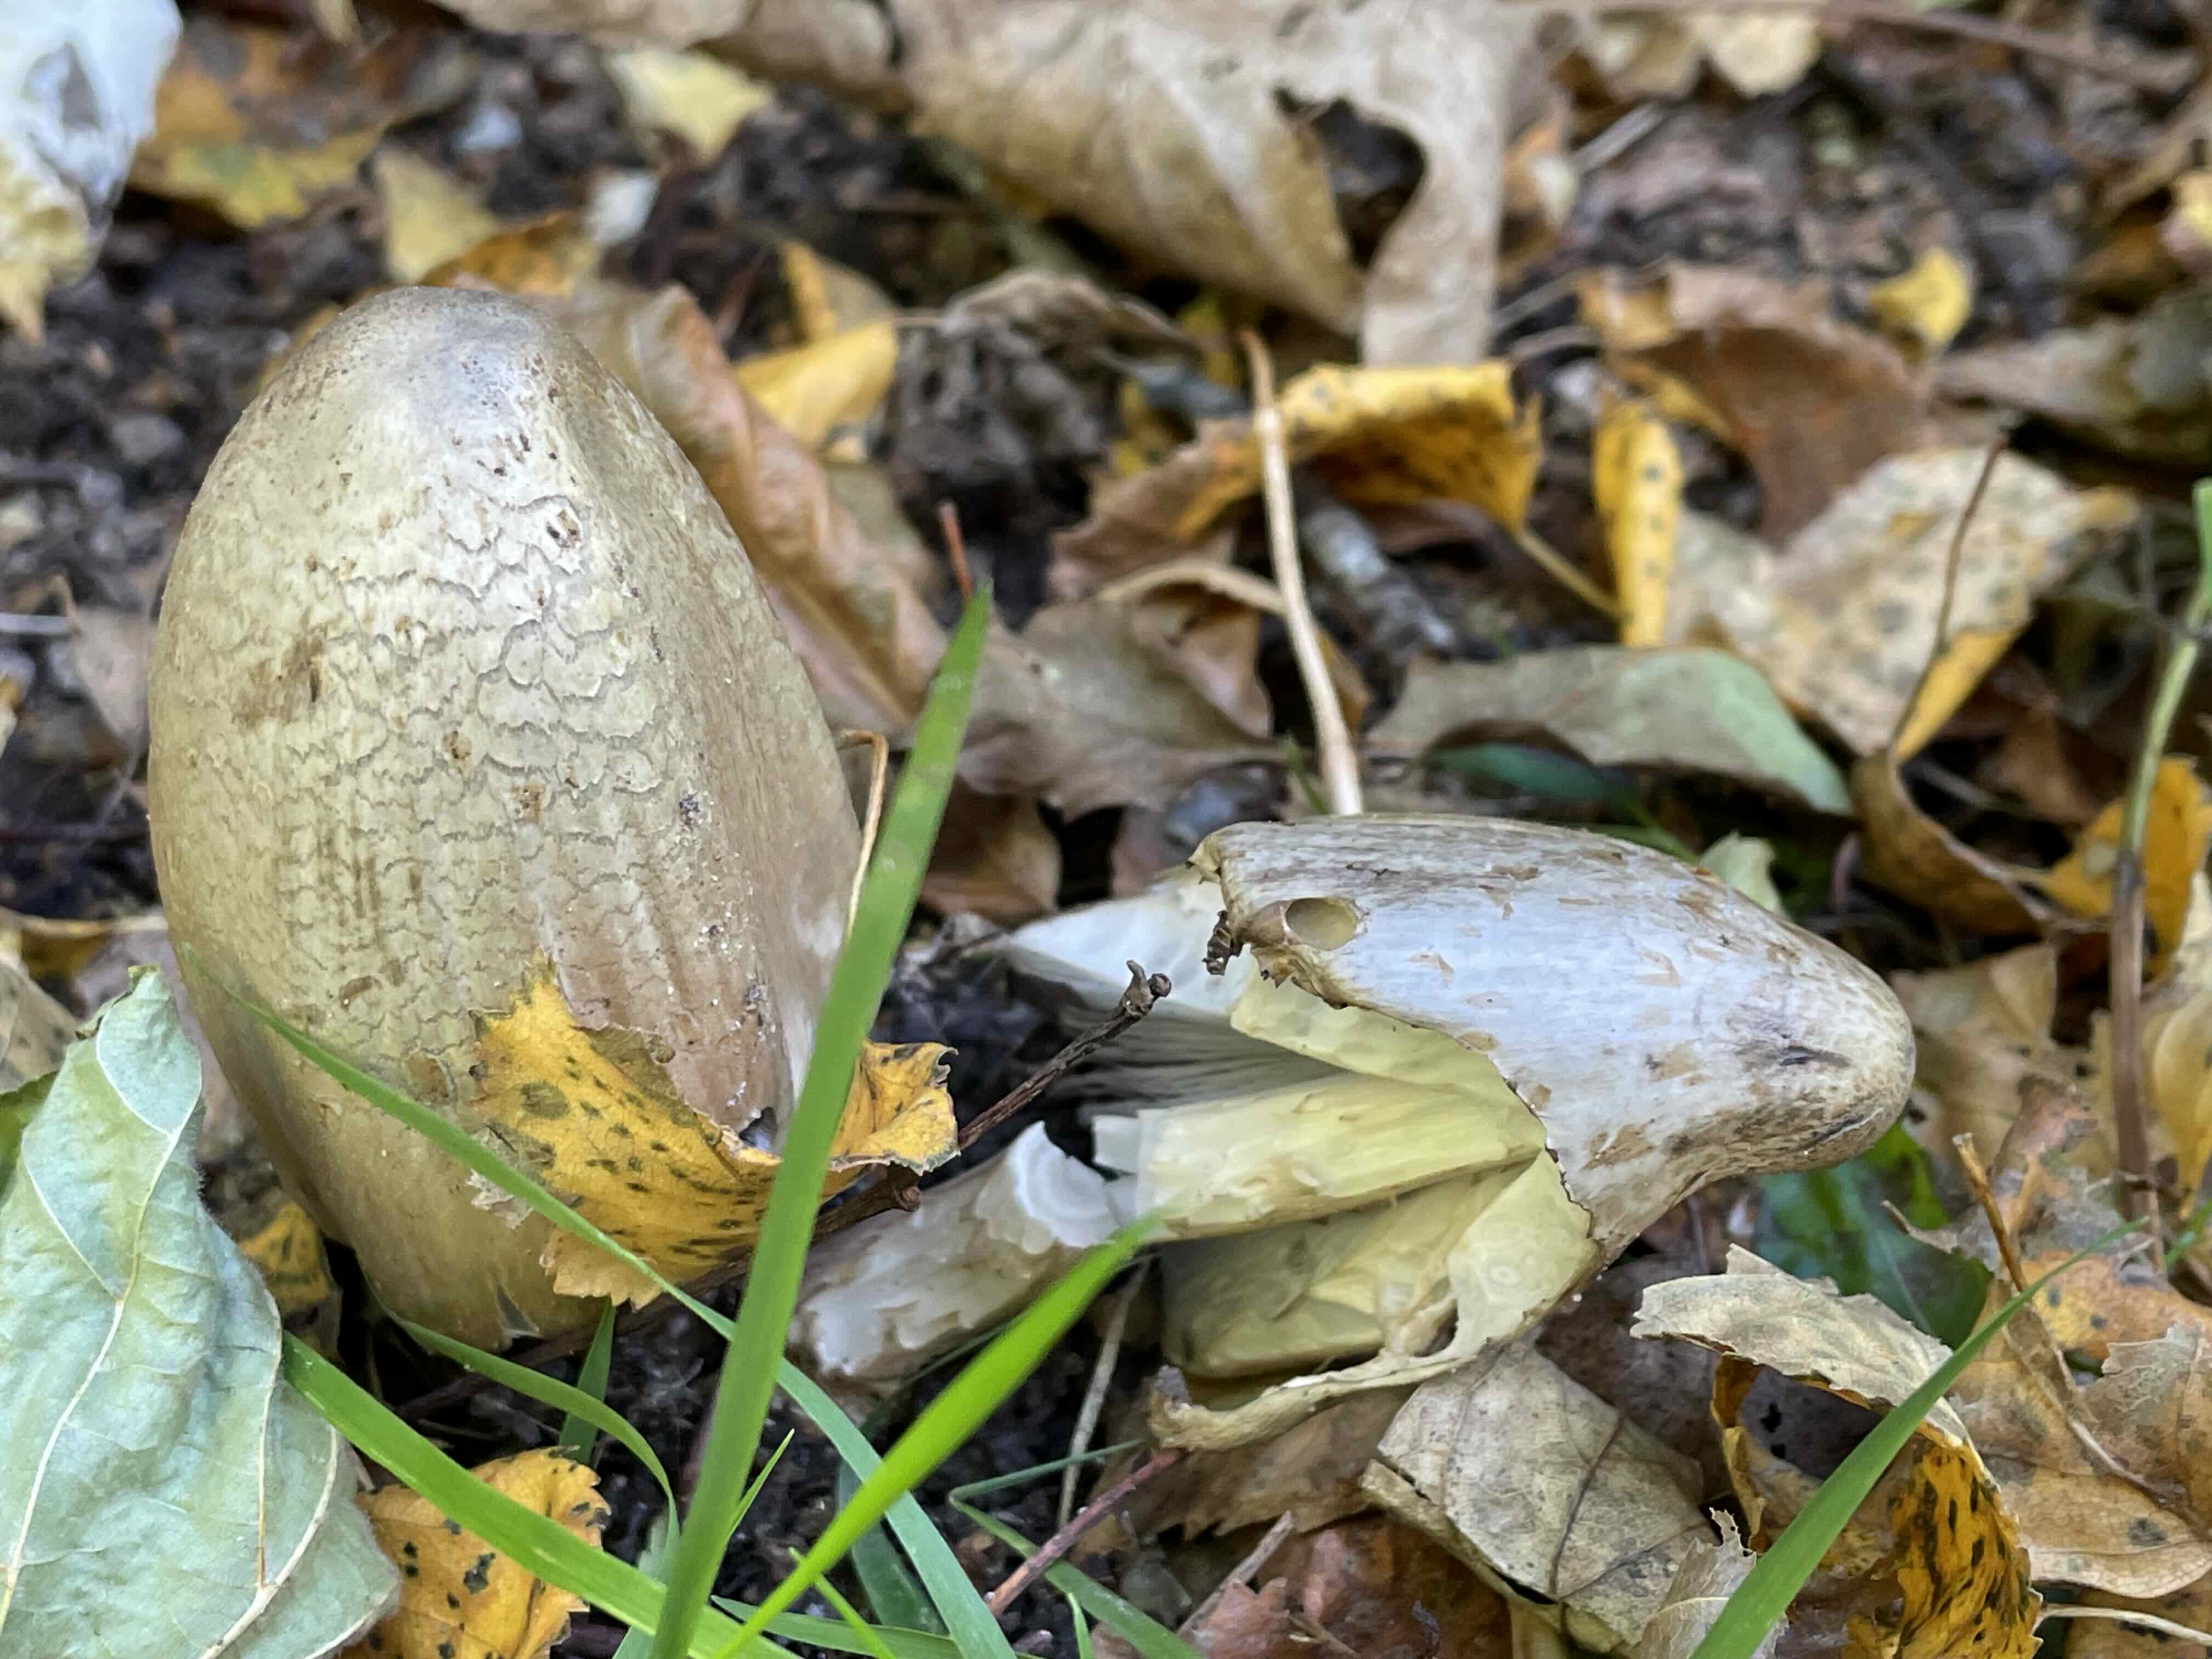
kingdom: Fungi
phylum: Basidiomycota
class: Agaricomycetes
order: Agaricales
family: Psathyrellaceae
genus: Coprinopsis
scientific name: Coprinopsis atramentaria
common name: almindelig blækhat
